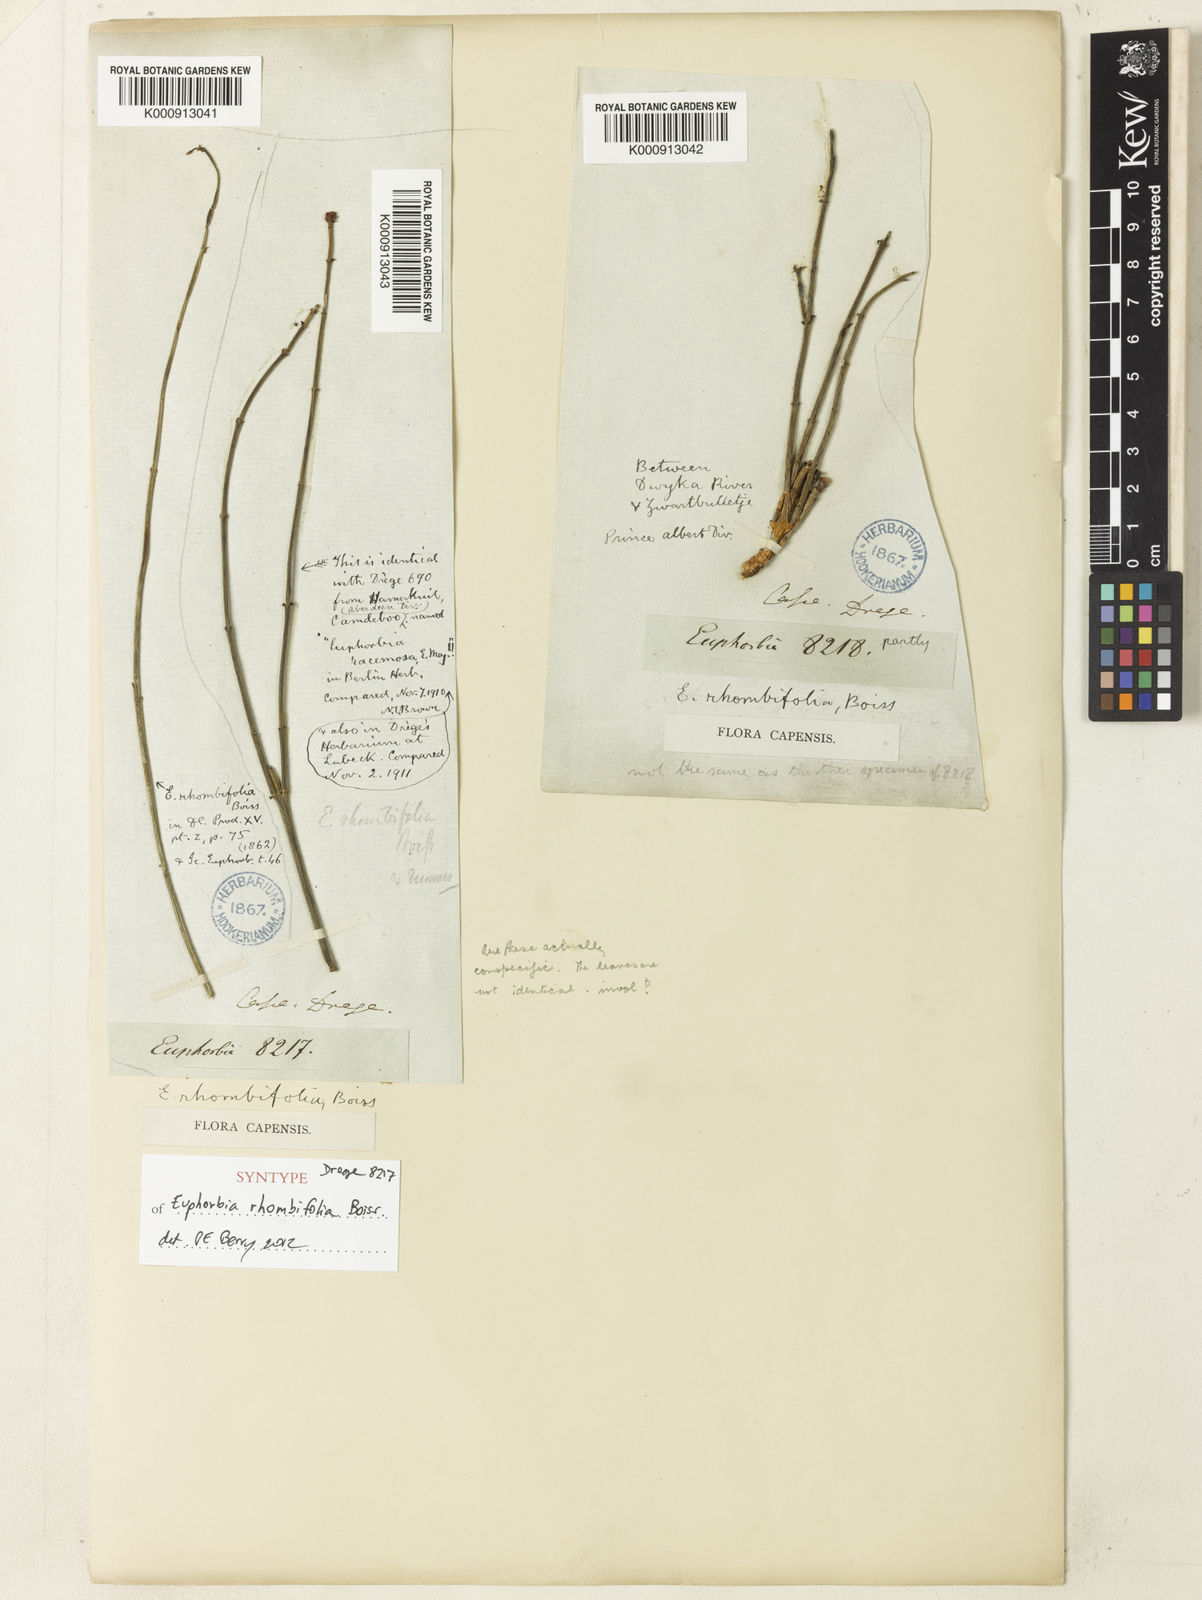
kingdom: Plantae
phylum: Tracheophyta
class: Magnoliopsida
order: Malpighiales
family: Euphorbiaceae
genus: Euphorbia
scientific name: Euphorbia rhombifolia
